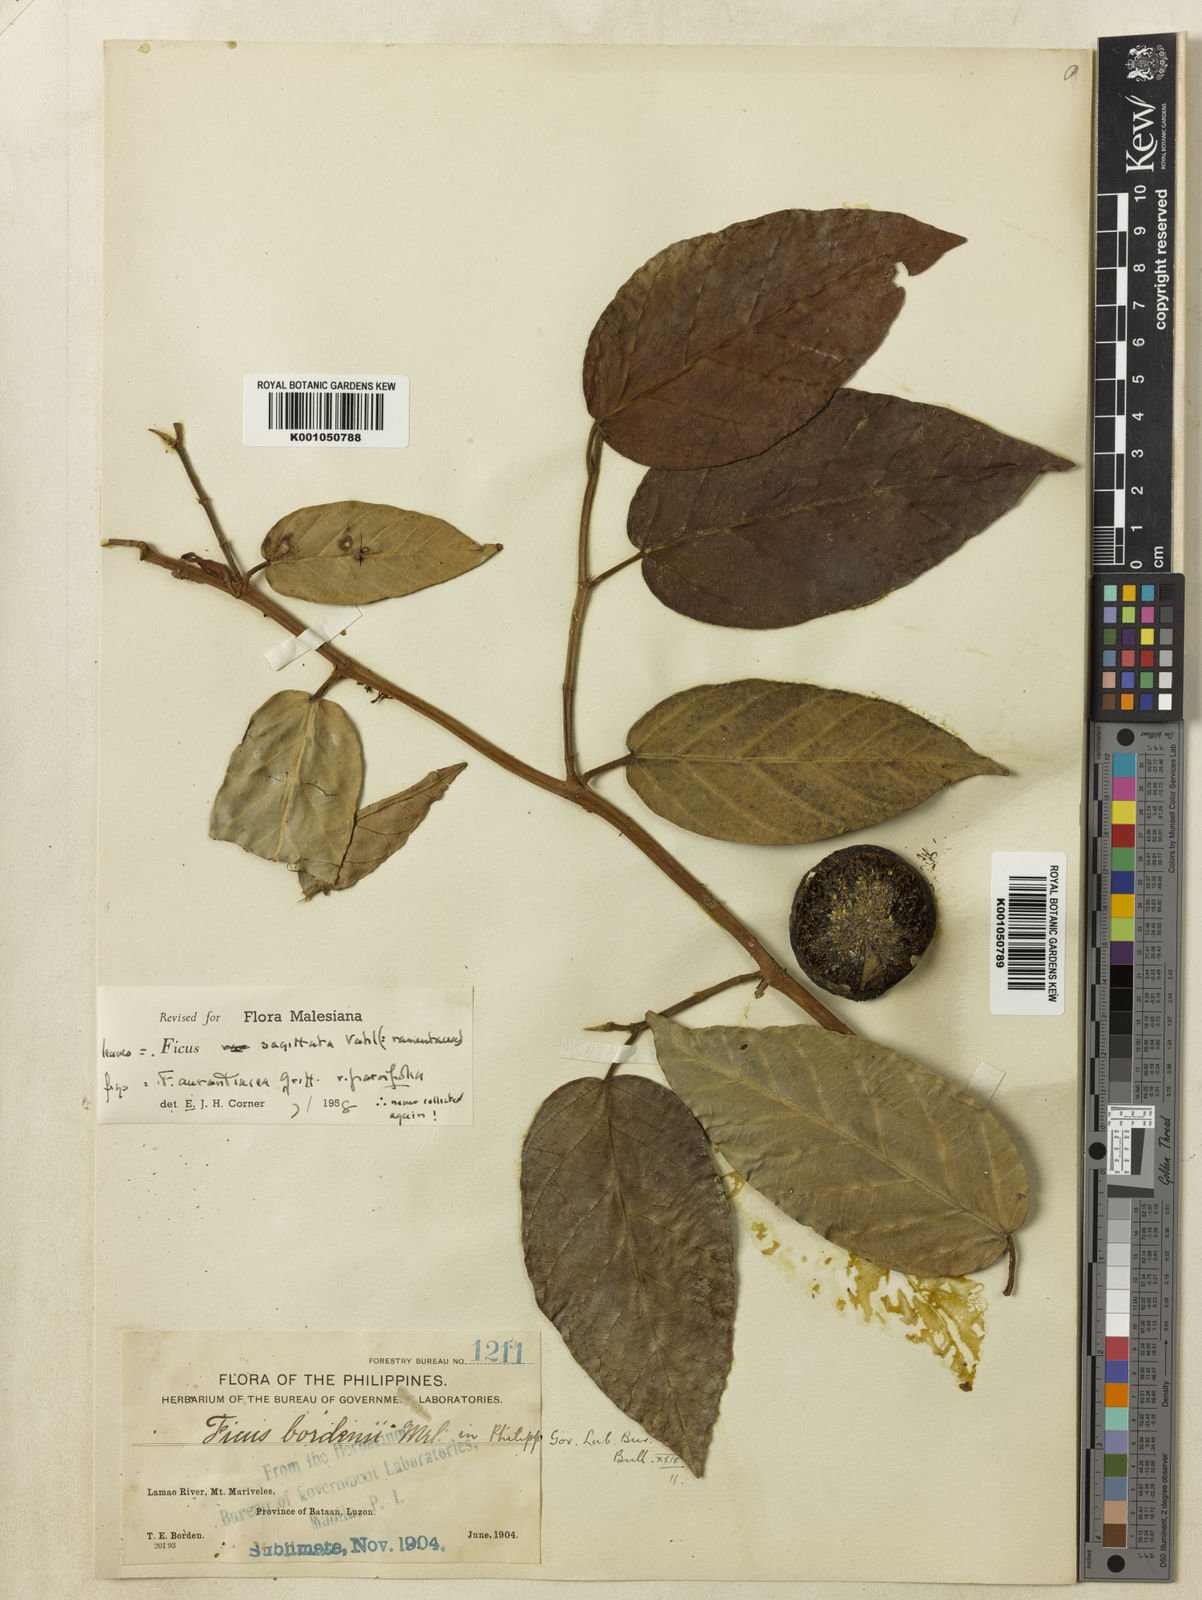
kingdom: Plantae
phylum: Tracheophyta
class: Magnoliopsida
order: Rosales
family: Moraceae
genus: Ficus
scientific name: Ficus sagittata
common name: Trailing fig
